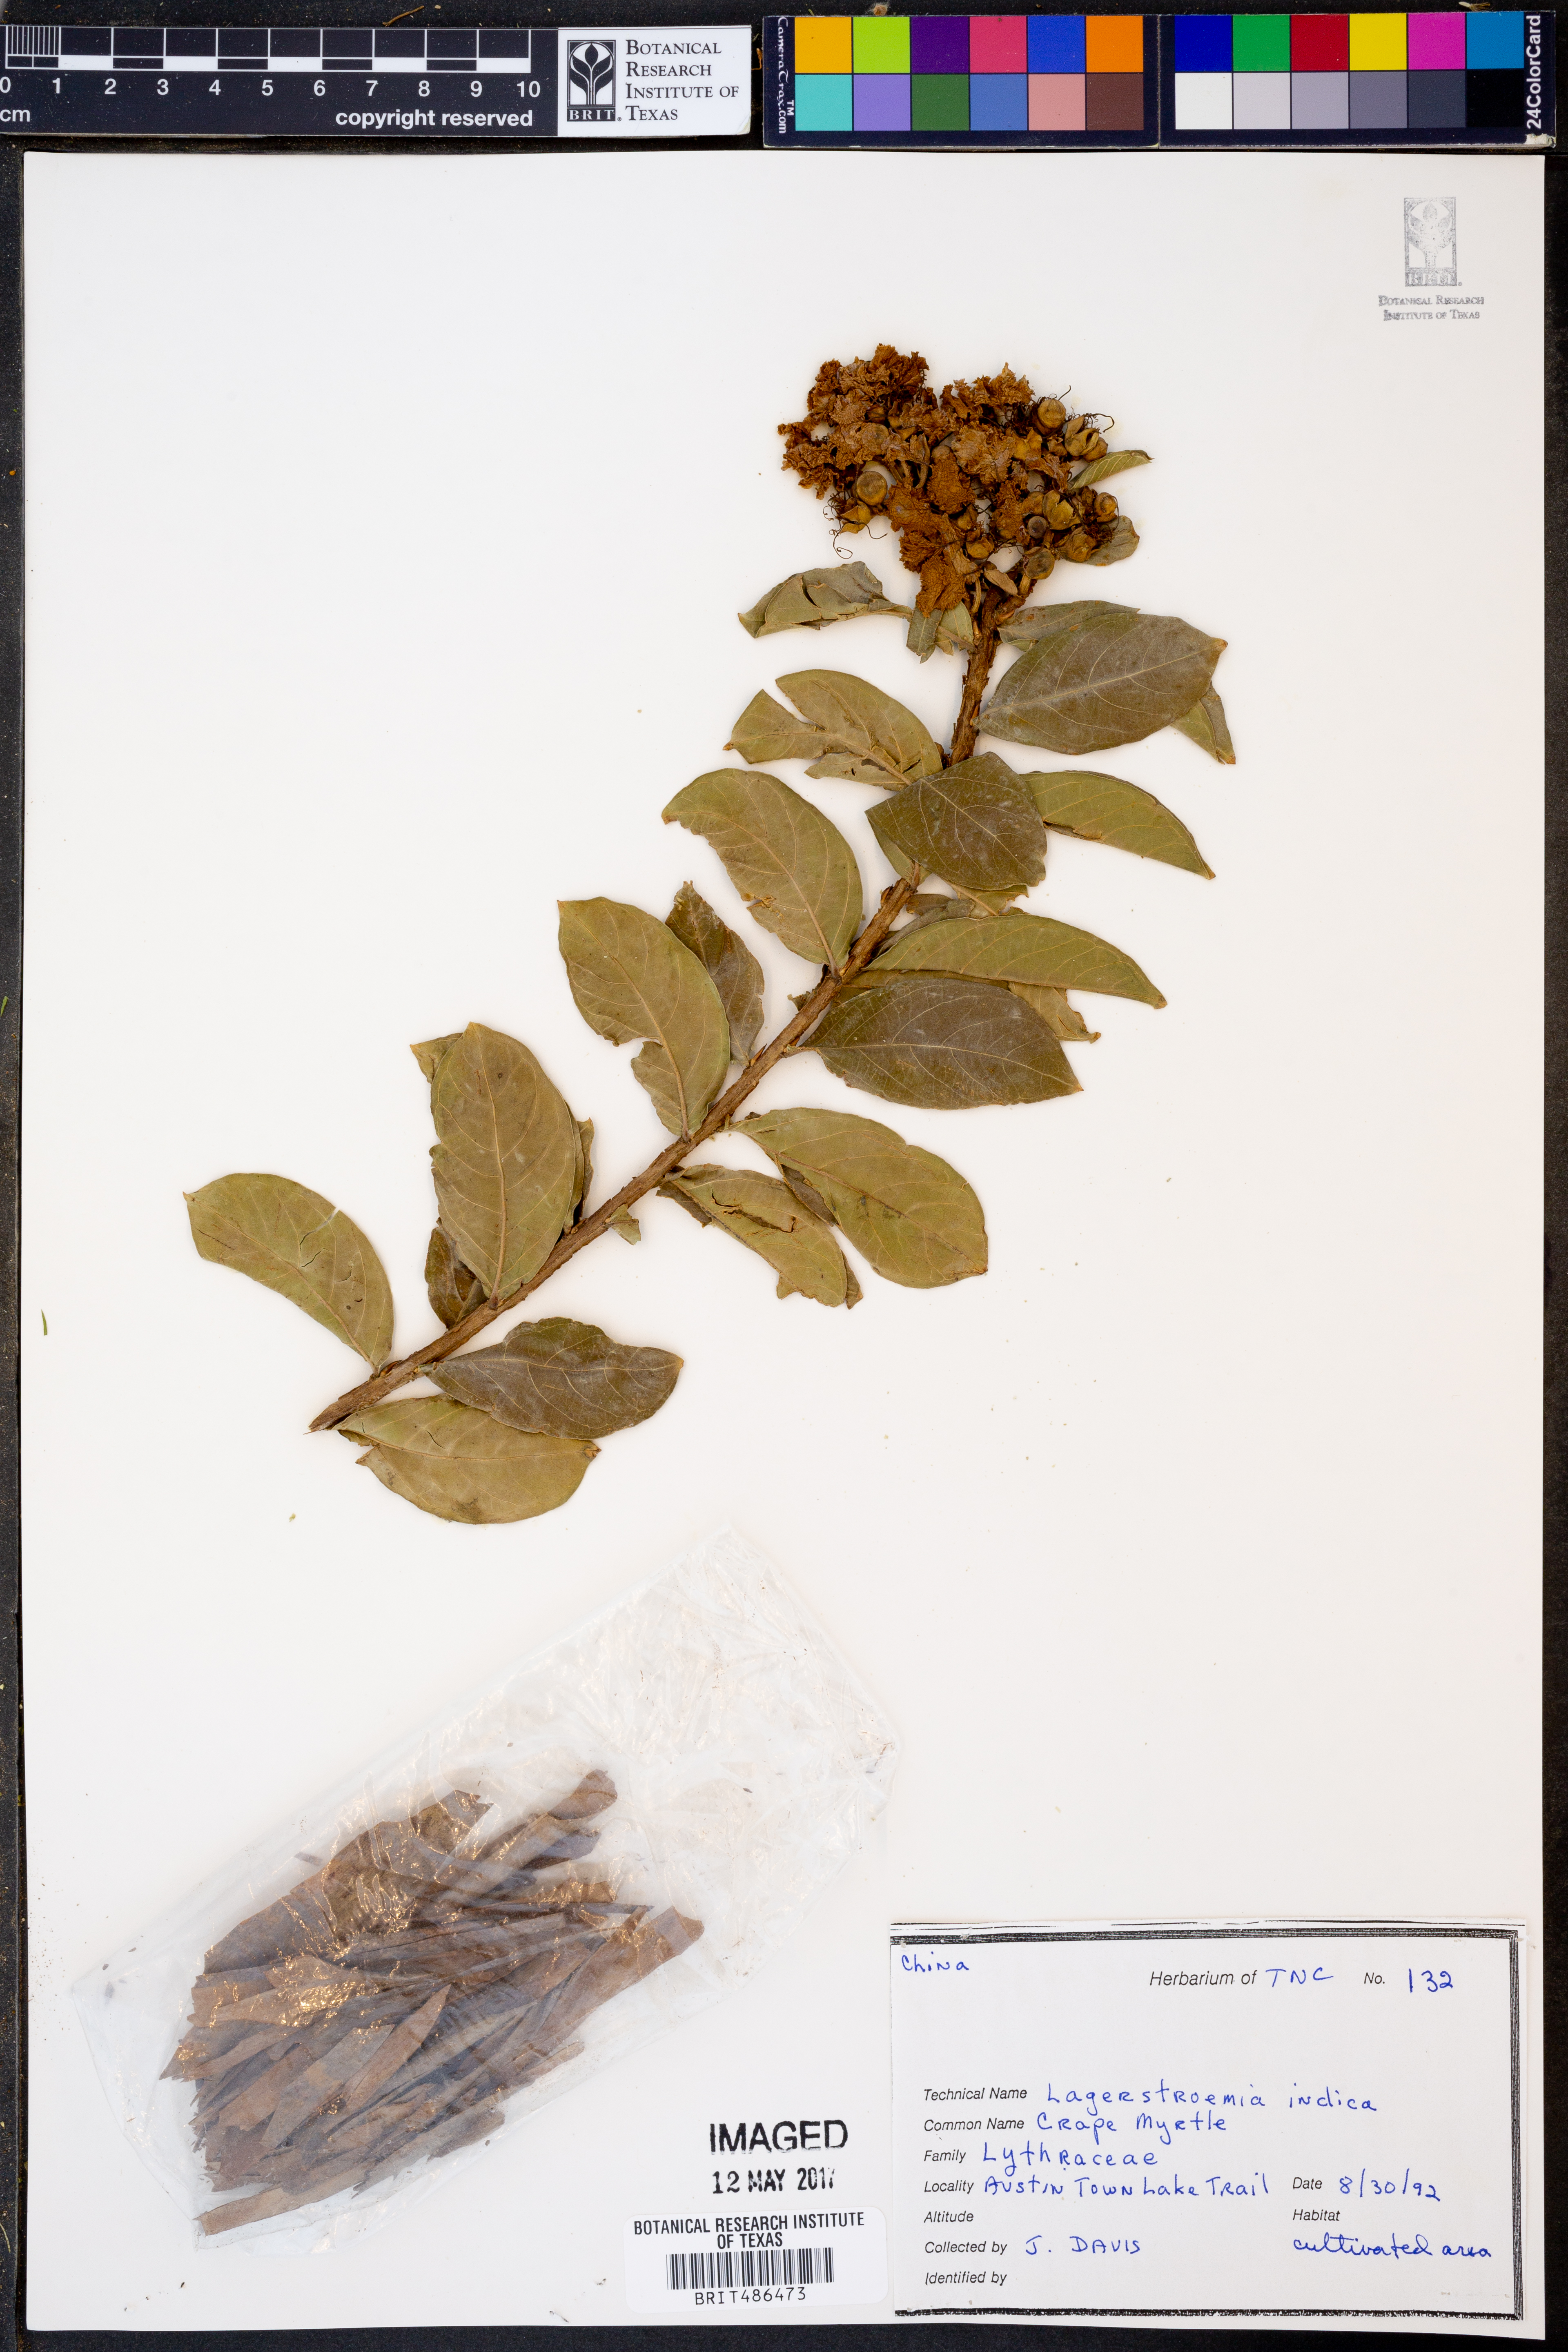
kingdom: Plantae
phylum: Tracheophyta
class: Magnoliopsida
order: Myrtales
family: Lythraceae
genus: Lagerstroemia
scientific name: Lagerstroemia indica
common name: Crape-myrtle
